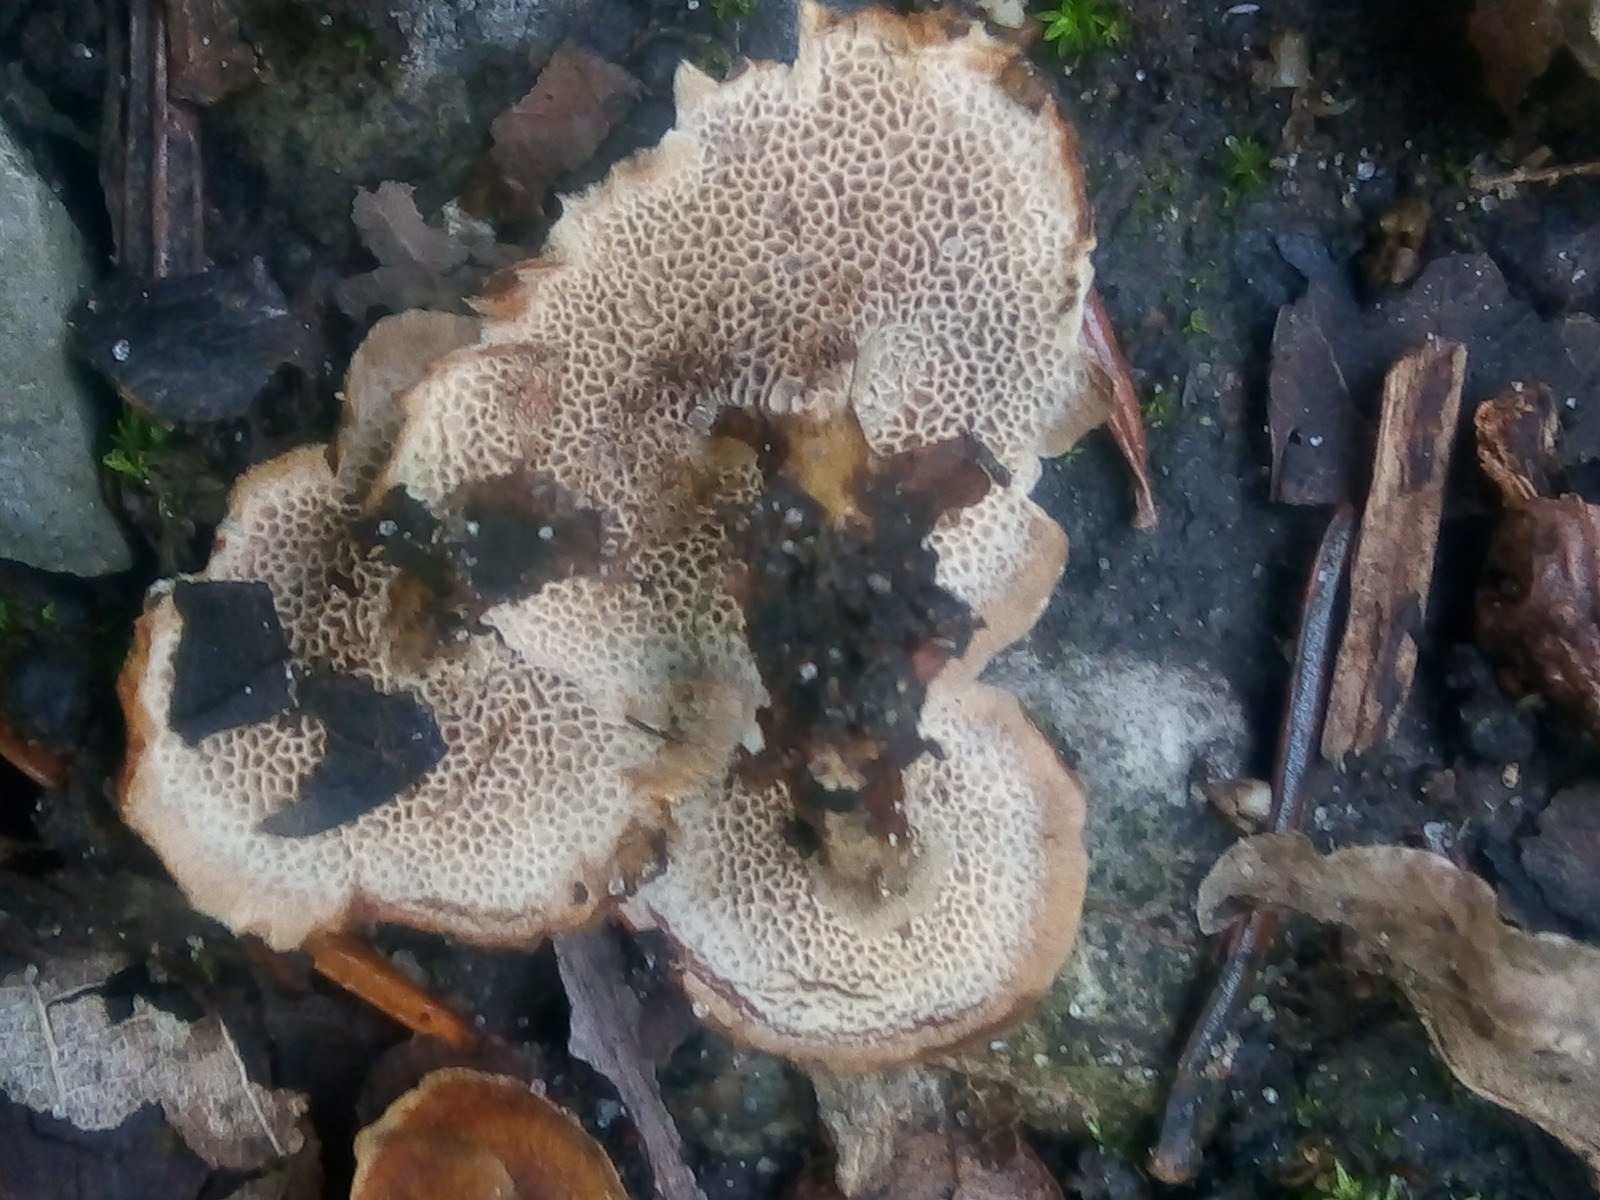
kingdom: Fungi
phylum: Basidiomycota
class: Agaricomycetes
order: Hymenochaetales
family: Hymenochaetaceae
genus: Coltricia
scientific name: Coltricia confluens
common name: park-sandporesvamp
